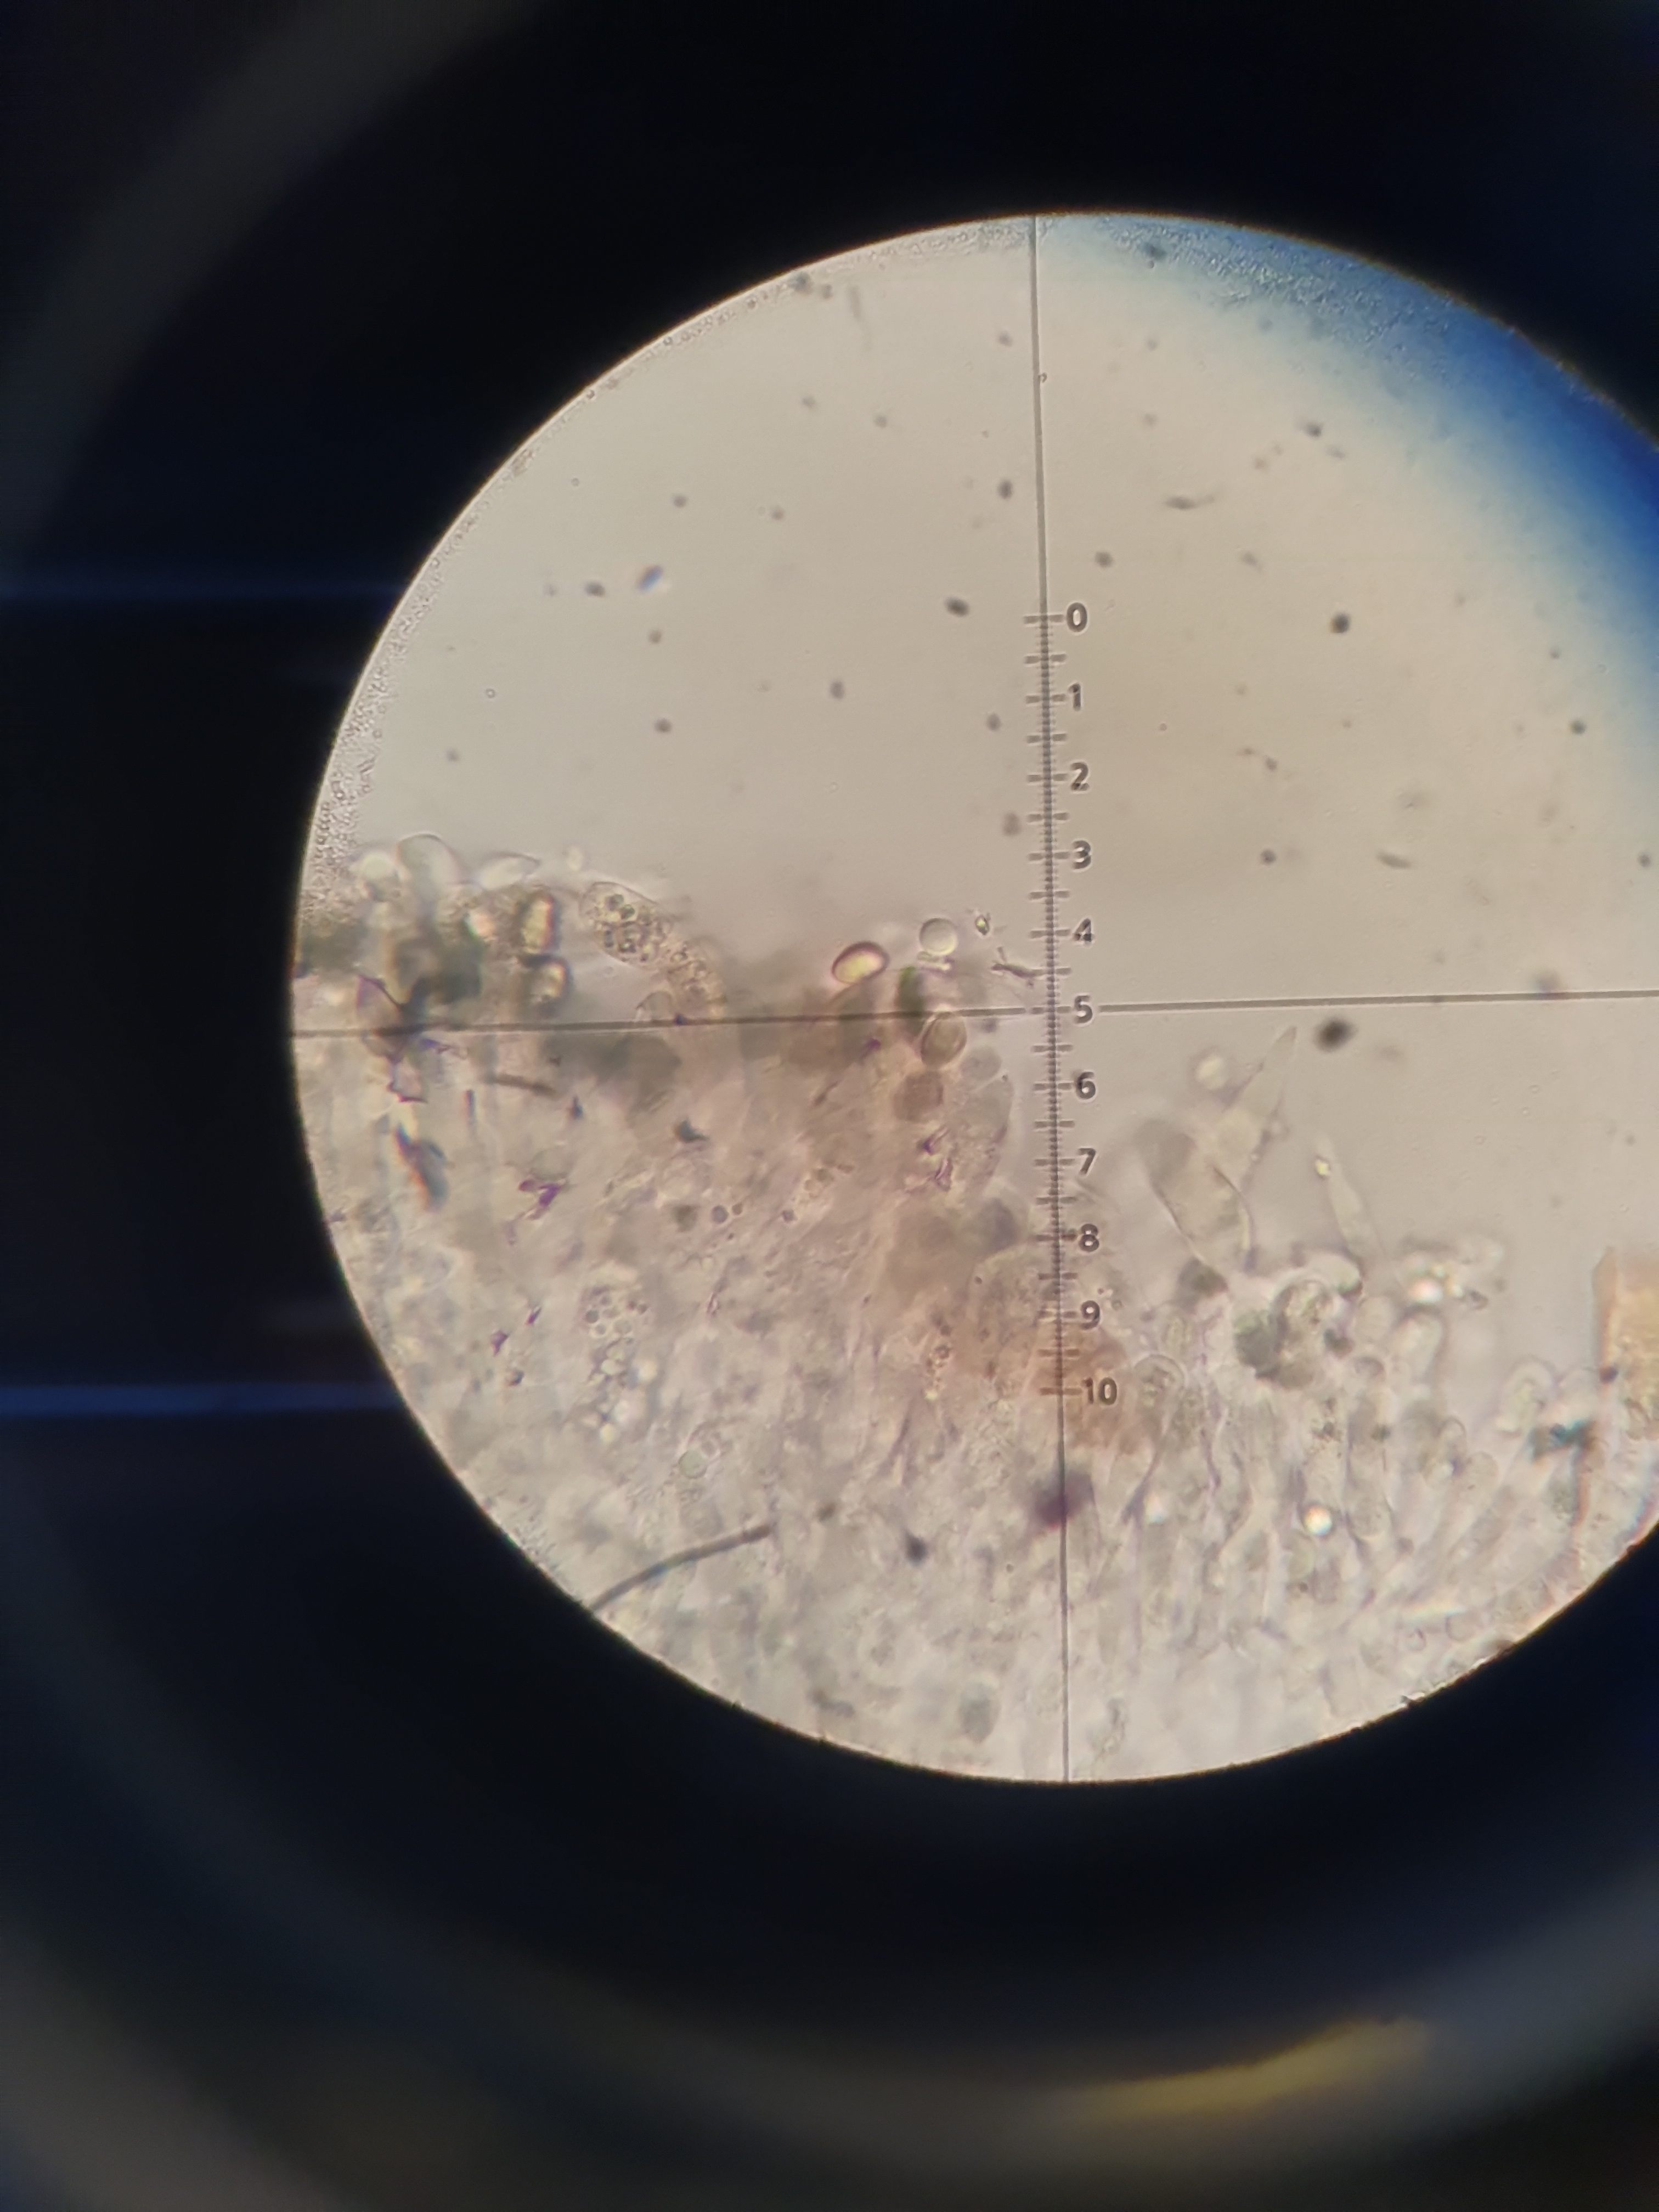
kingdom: Fungi
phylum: Basidiomycota
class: Agaricomycetes
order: Boletales
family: Paxillaceae
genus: Paxillus
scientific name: Paxillus involutus
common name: almindelig netbladhat
